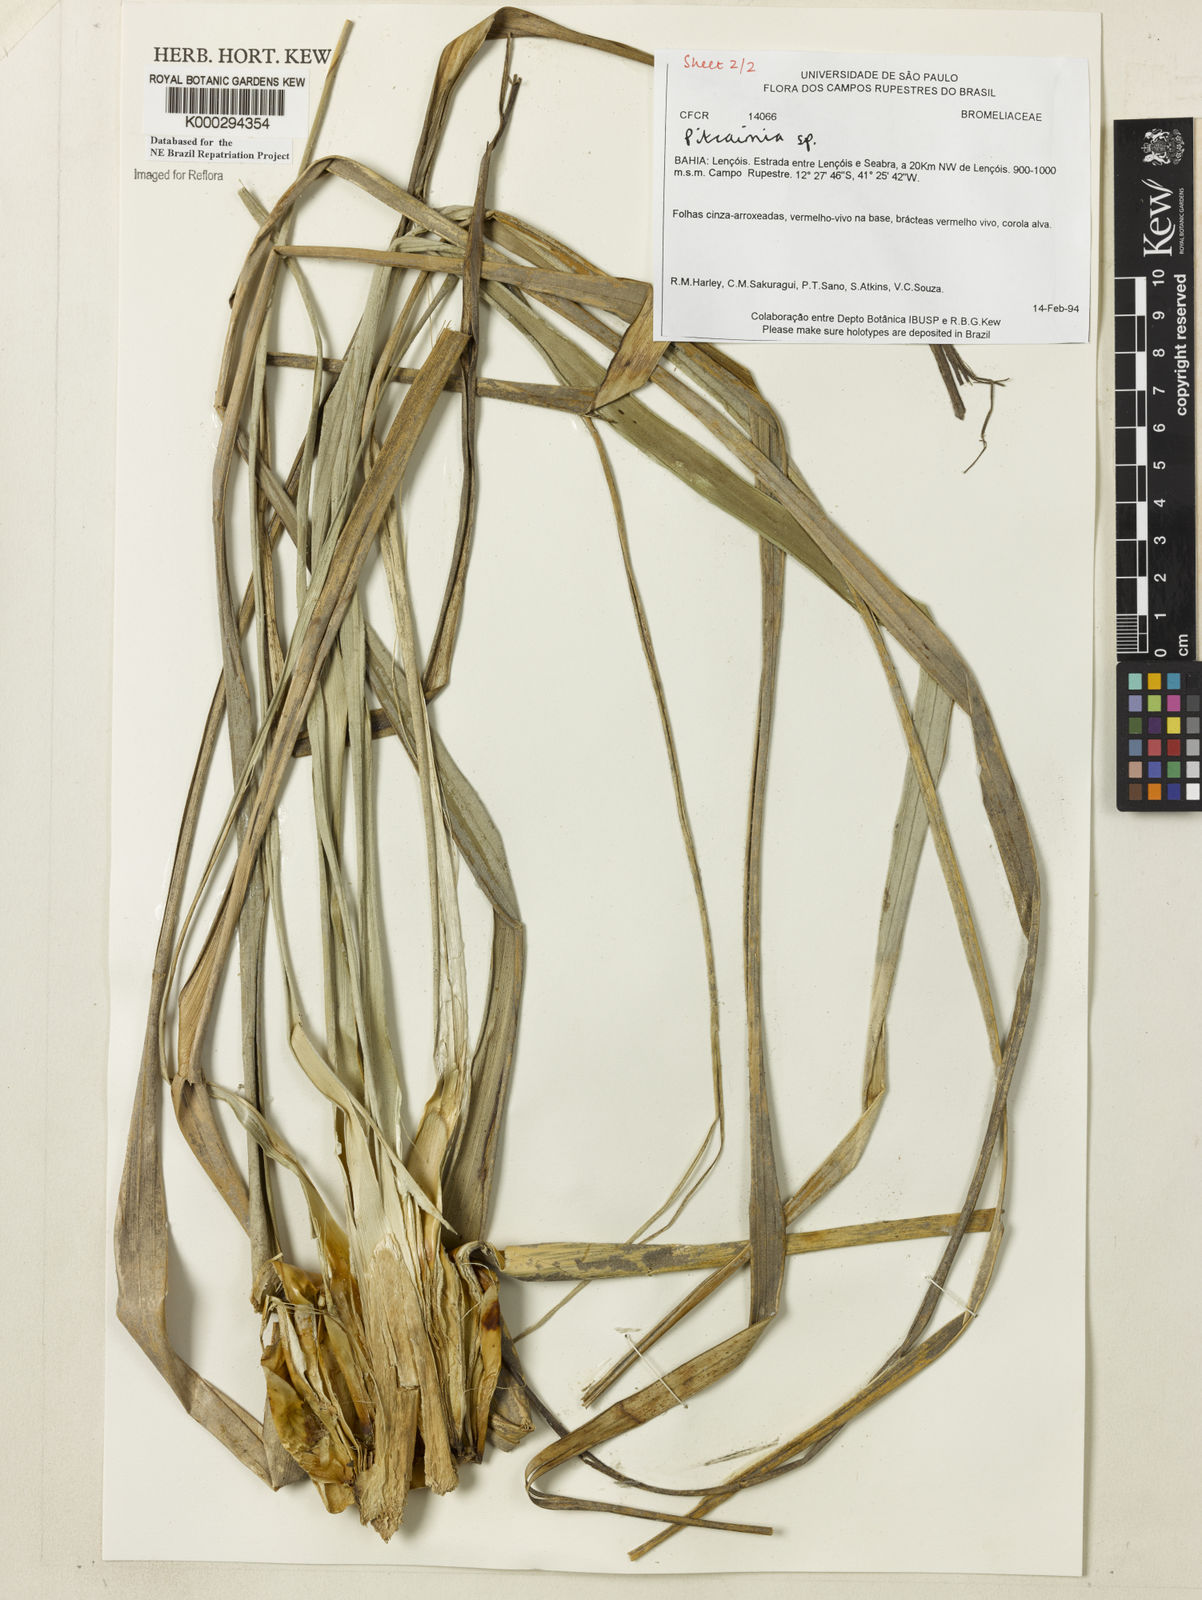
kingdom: Plantae
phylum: Tracheophyta
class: Liliopsida
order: Poales
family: Bromeliaceae
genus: Pitcairnia
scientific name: Pitcairnia
